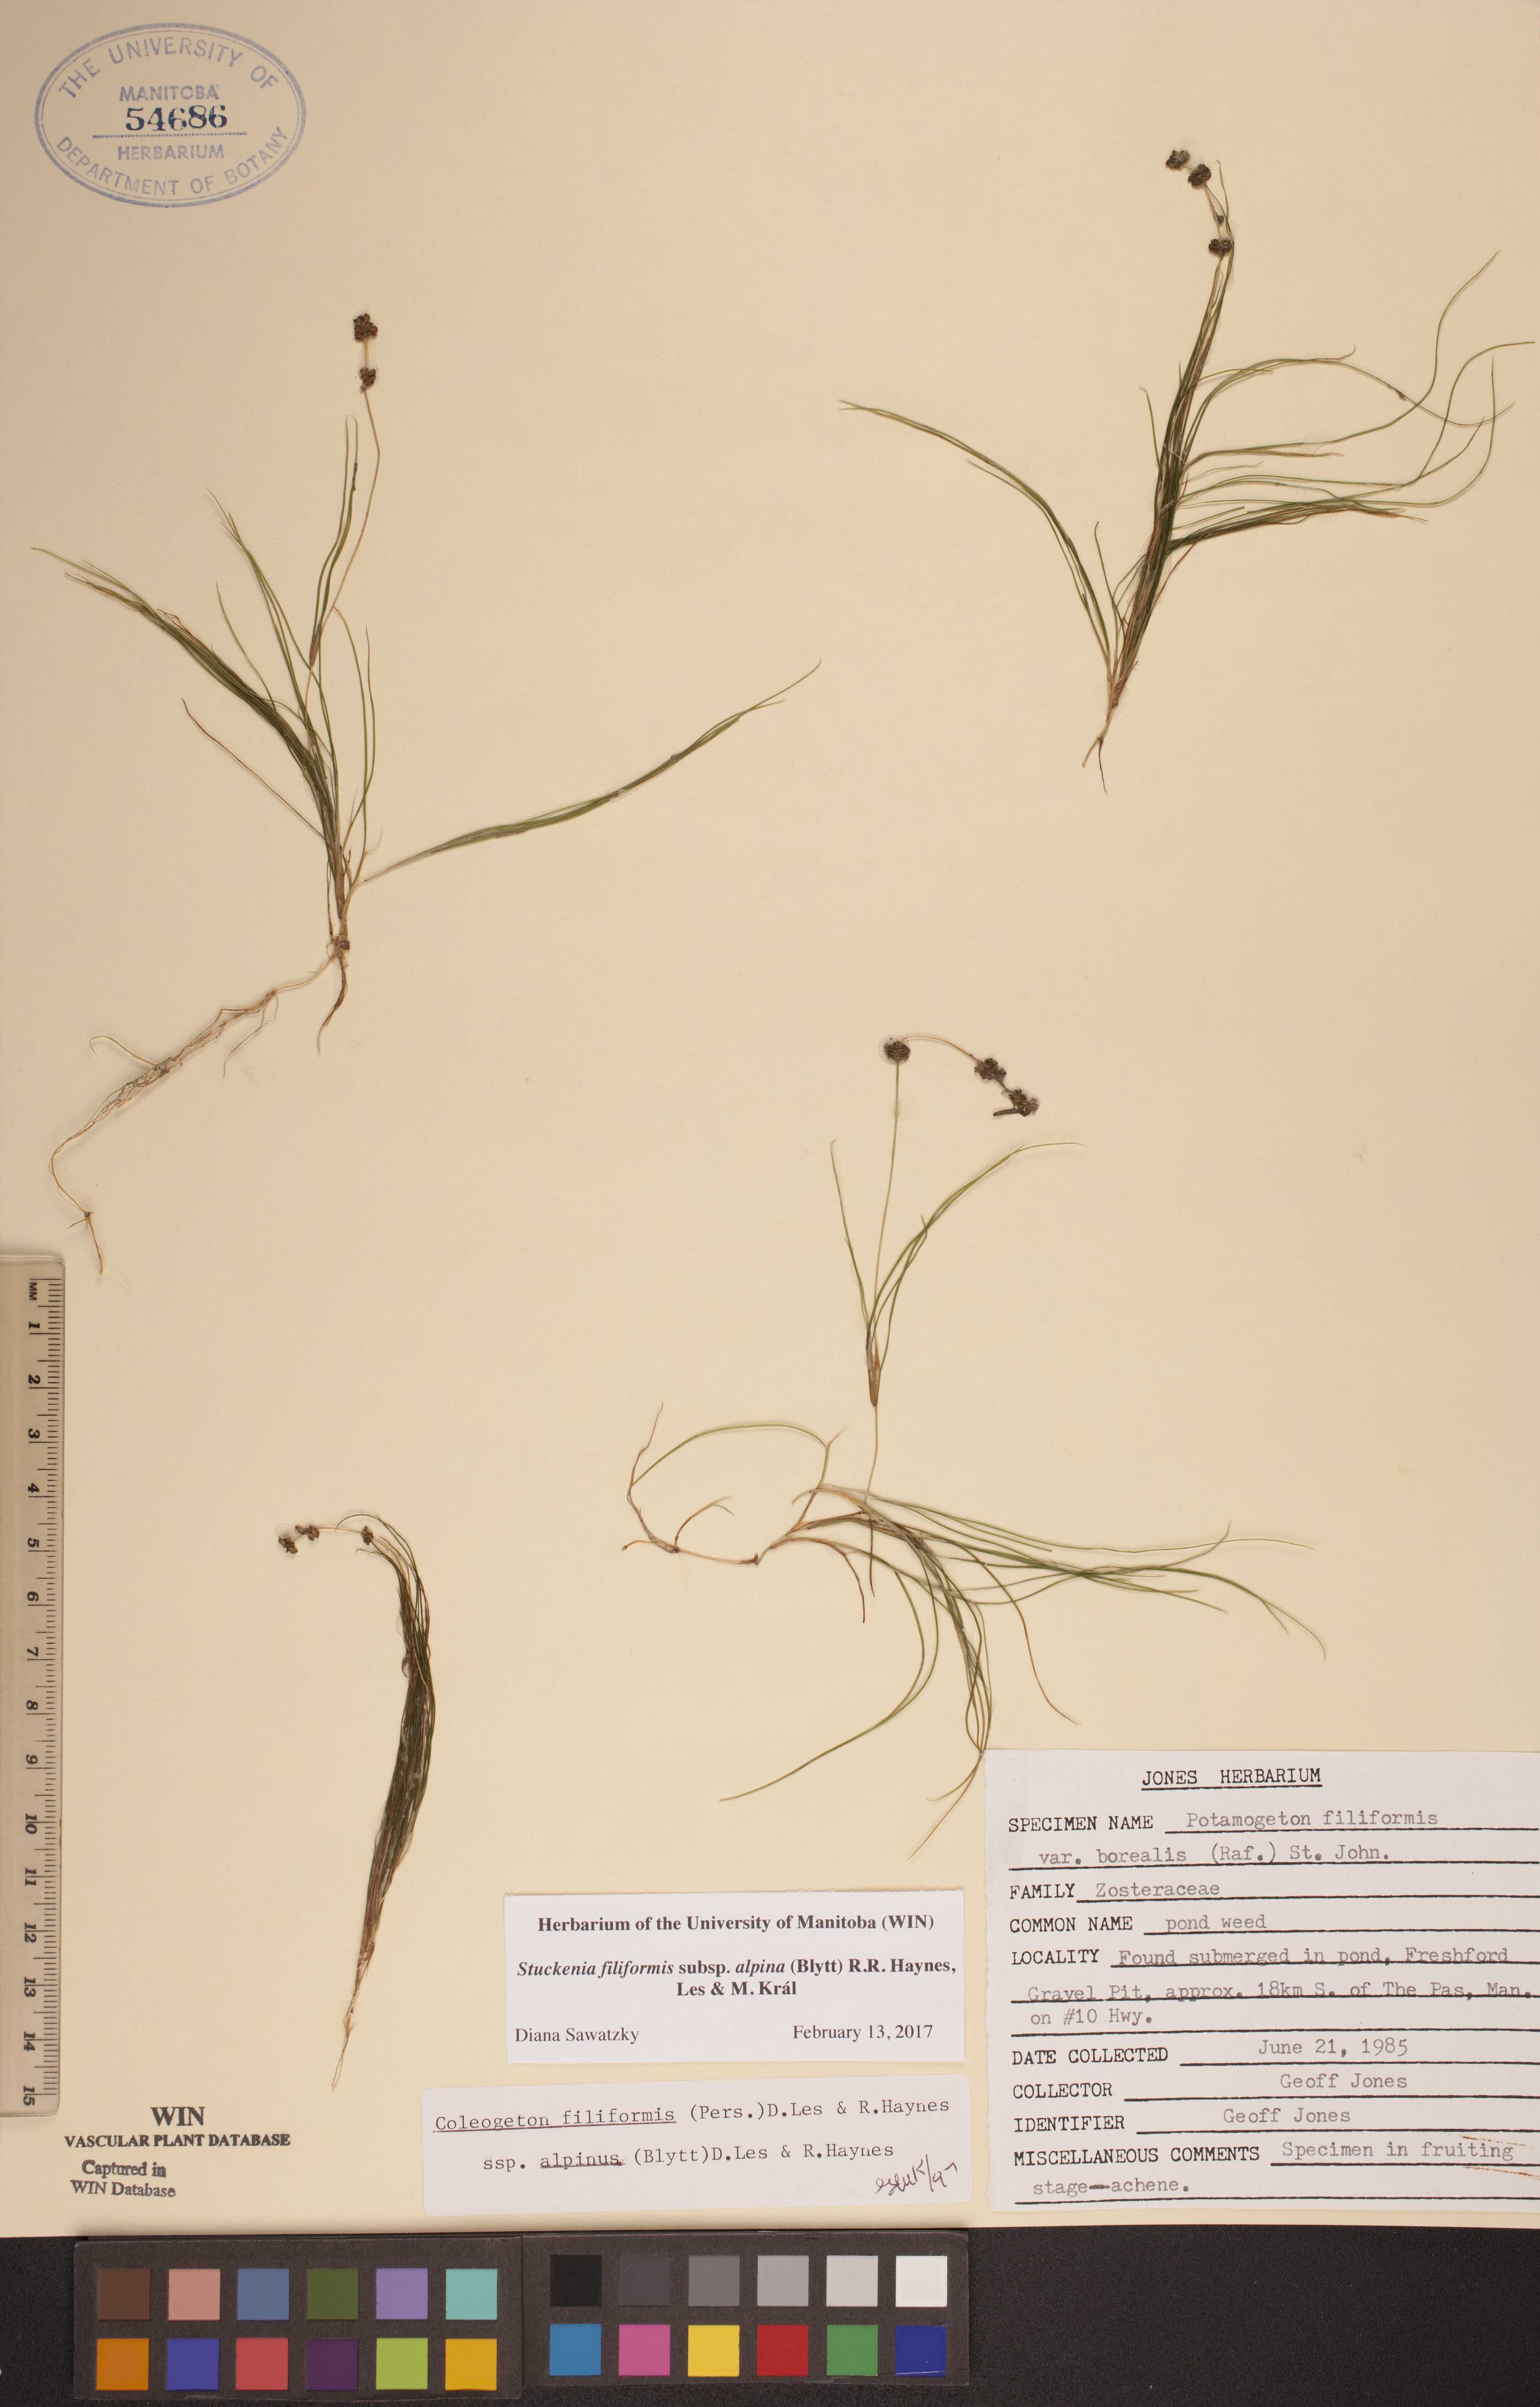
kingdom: Plantae
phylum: Tracheophyta
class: Liliopsida
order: Alismatales
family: Potamogetonaceae
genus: Stuckenia
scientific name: Stuckenia filiformis
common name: Alpine thread-leaved pondweed
